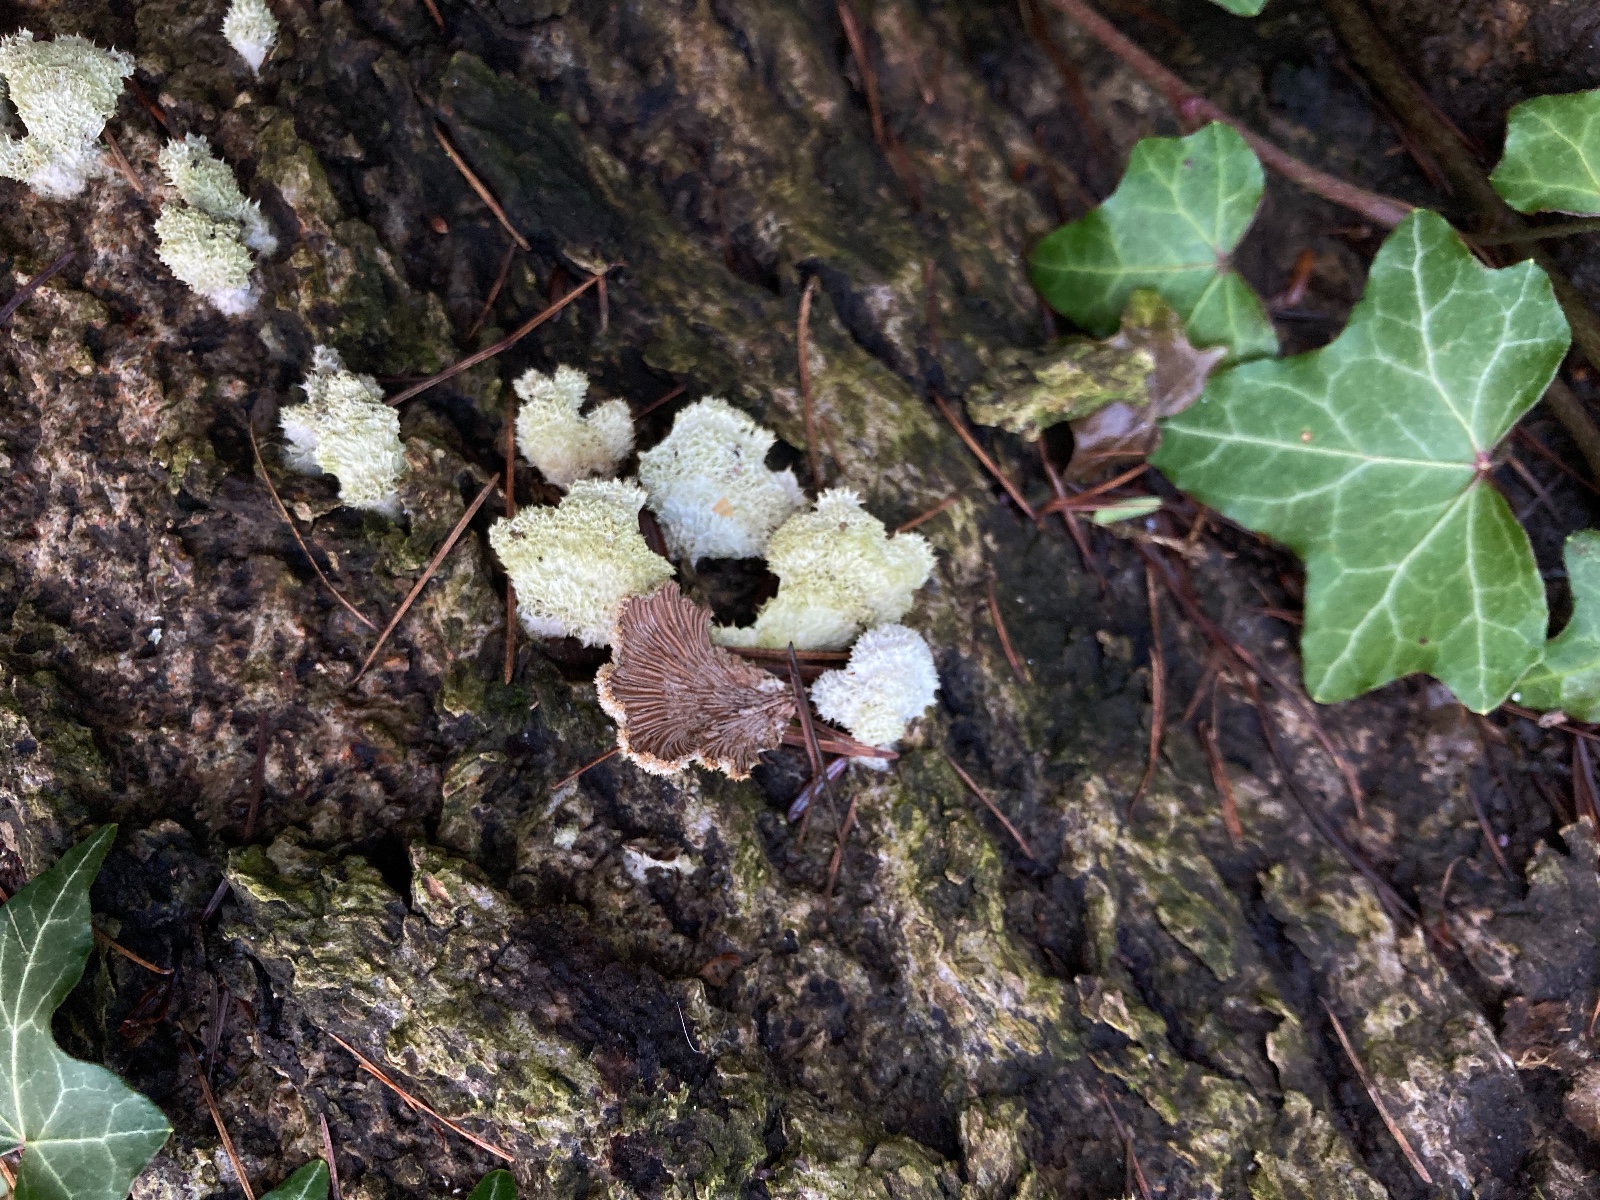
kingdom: Fungi
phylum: Basidiomycota
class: Agaricomycetes
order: Agaricales
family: Schizophyllaceae
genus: Schizophyllum
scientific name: Schizophyllum commune
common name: kløvblad
